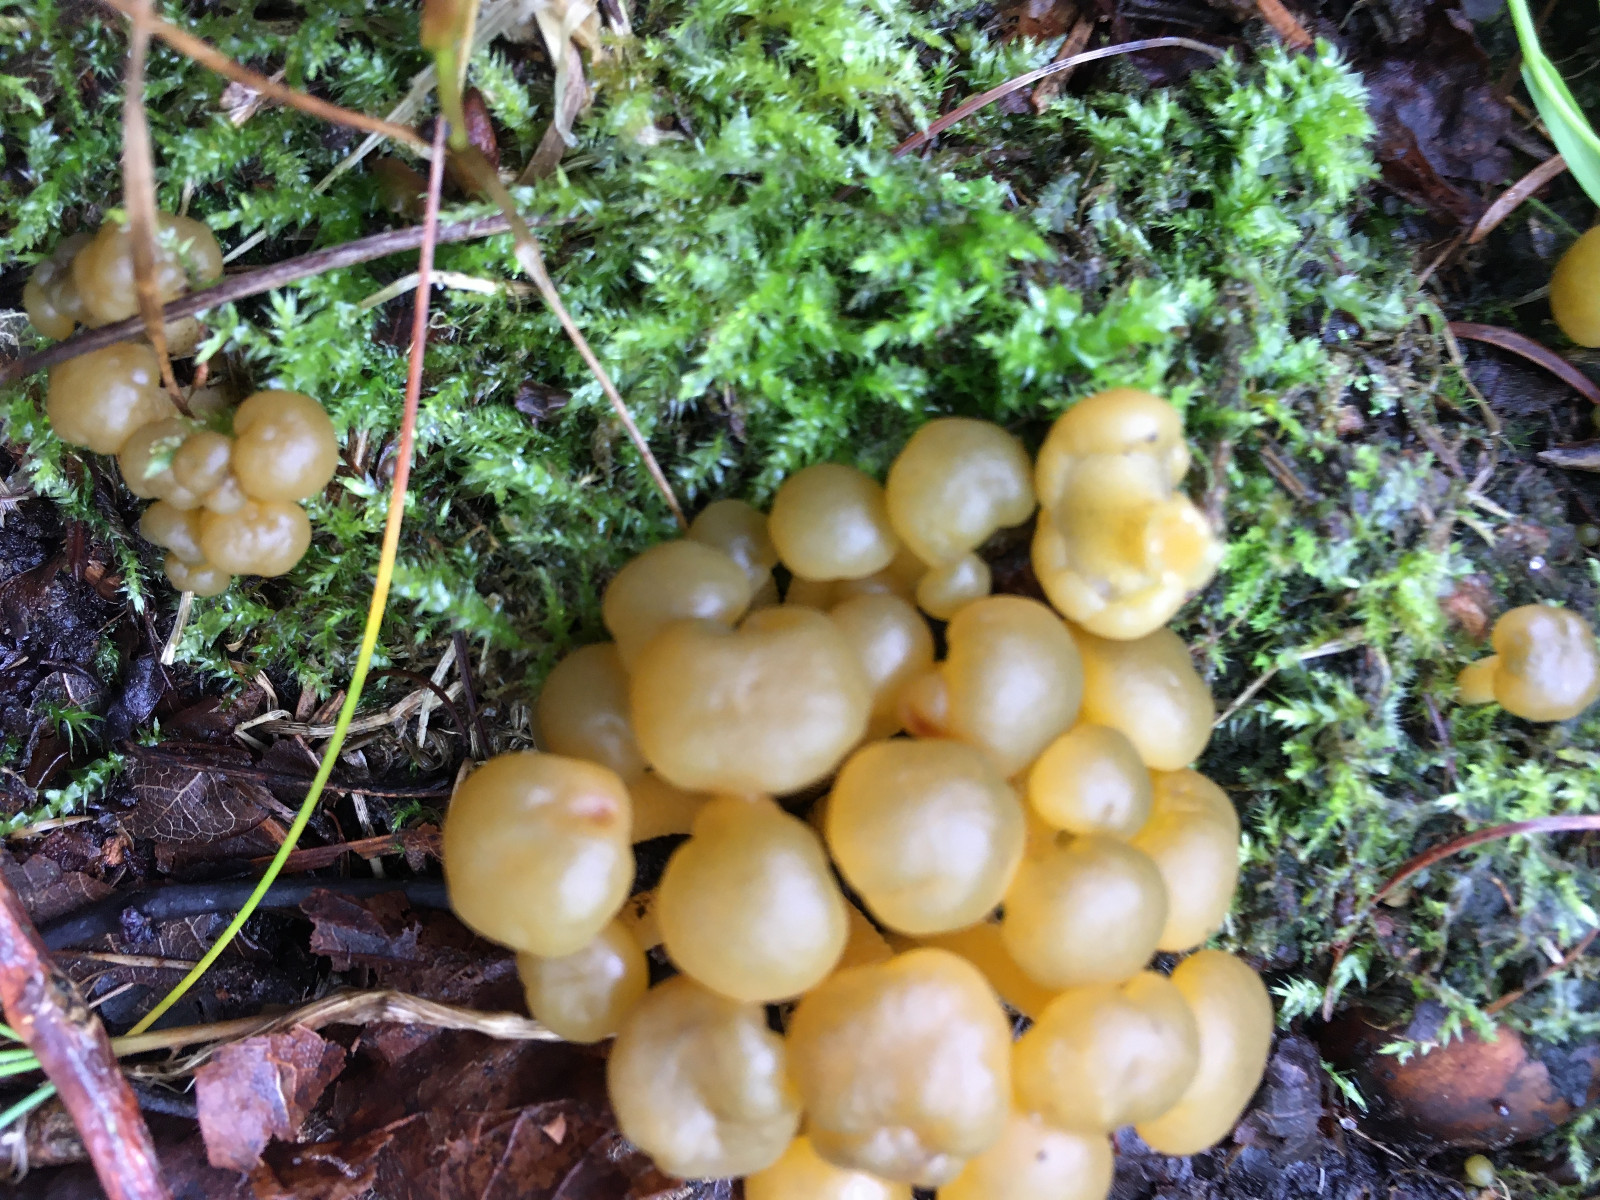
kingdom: Fungi
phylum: Ascomycota
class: Leotiomycetes
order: Leotiales
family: Leotiaceae
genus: Leotia
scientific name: Leotia lubrica
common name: ravsvamp
